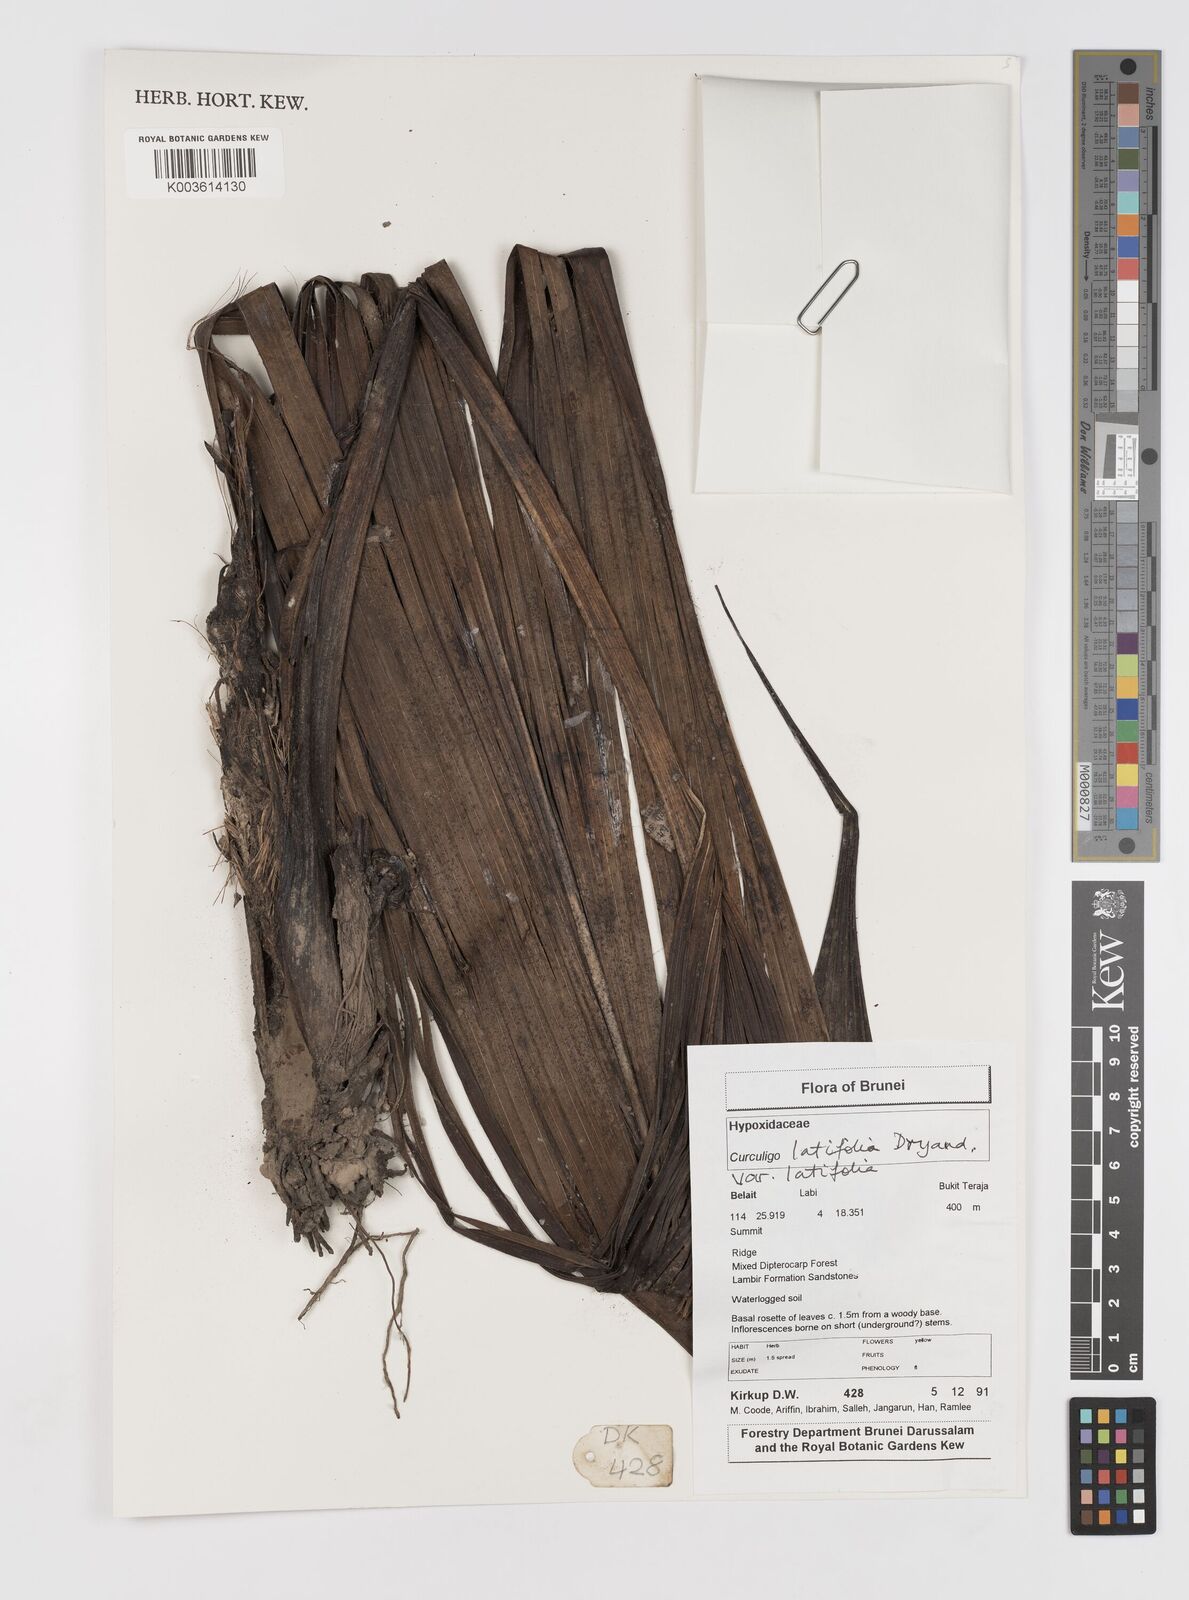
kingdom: Plantae
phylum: Tracheophyta
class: Liliopsida
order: Asparagales
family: Hypoxidaceae
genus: Curculigo
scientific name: Curculigo latifolia
